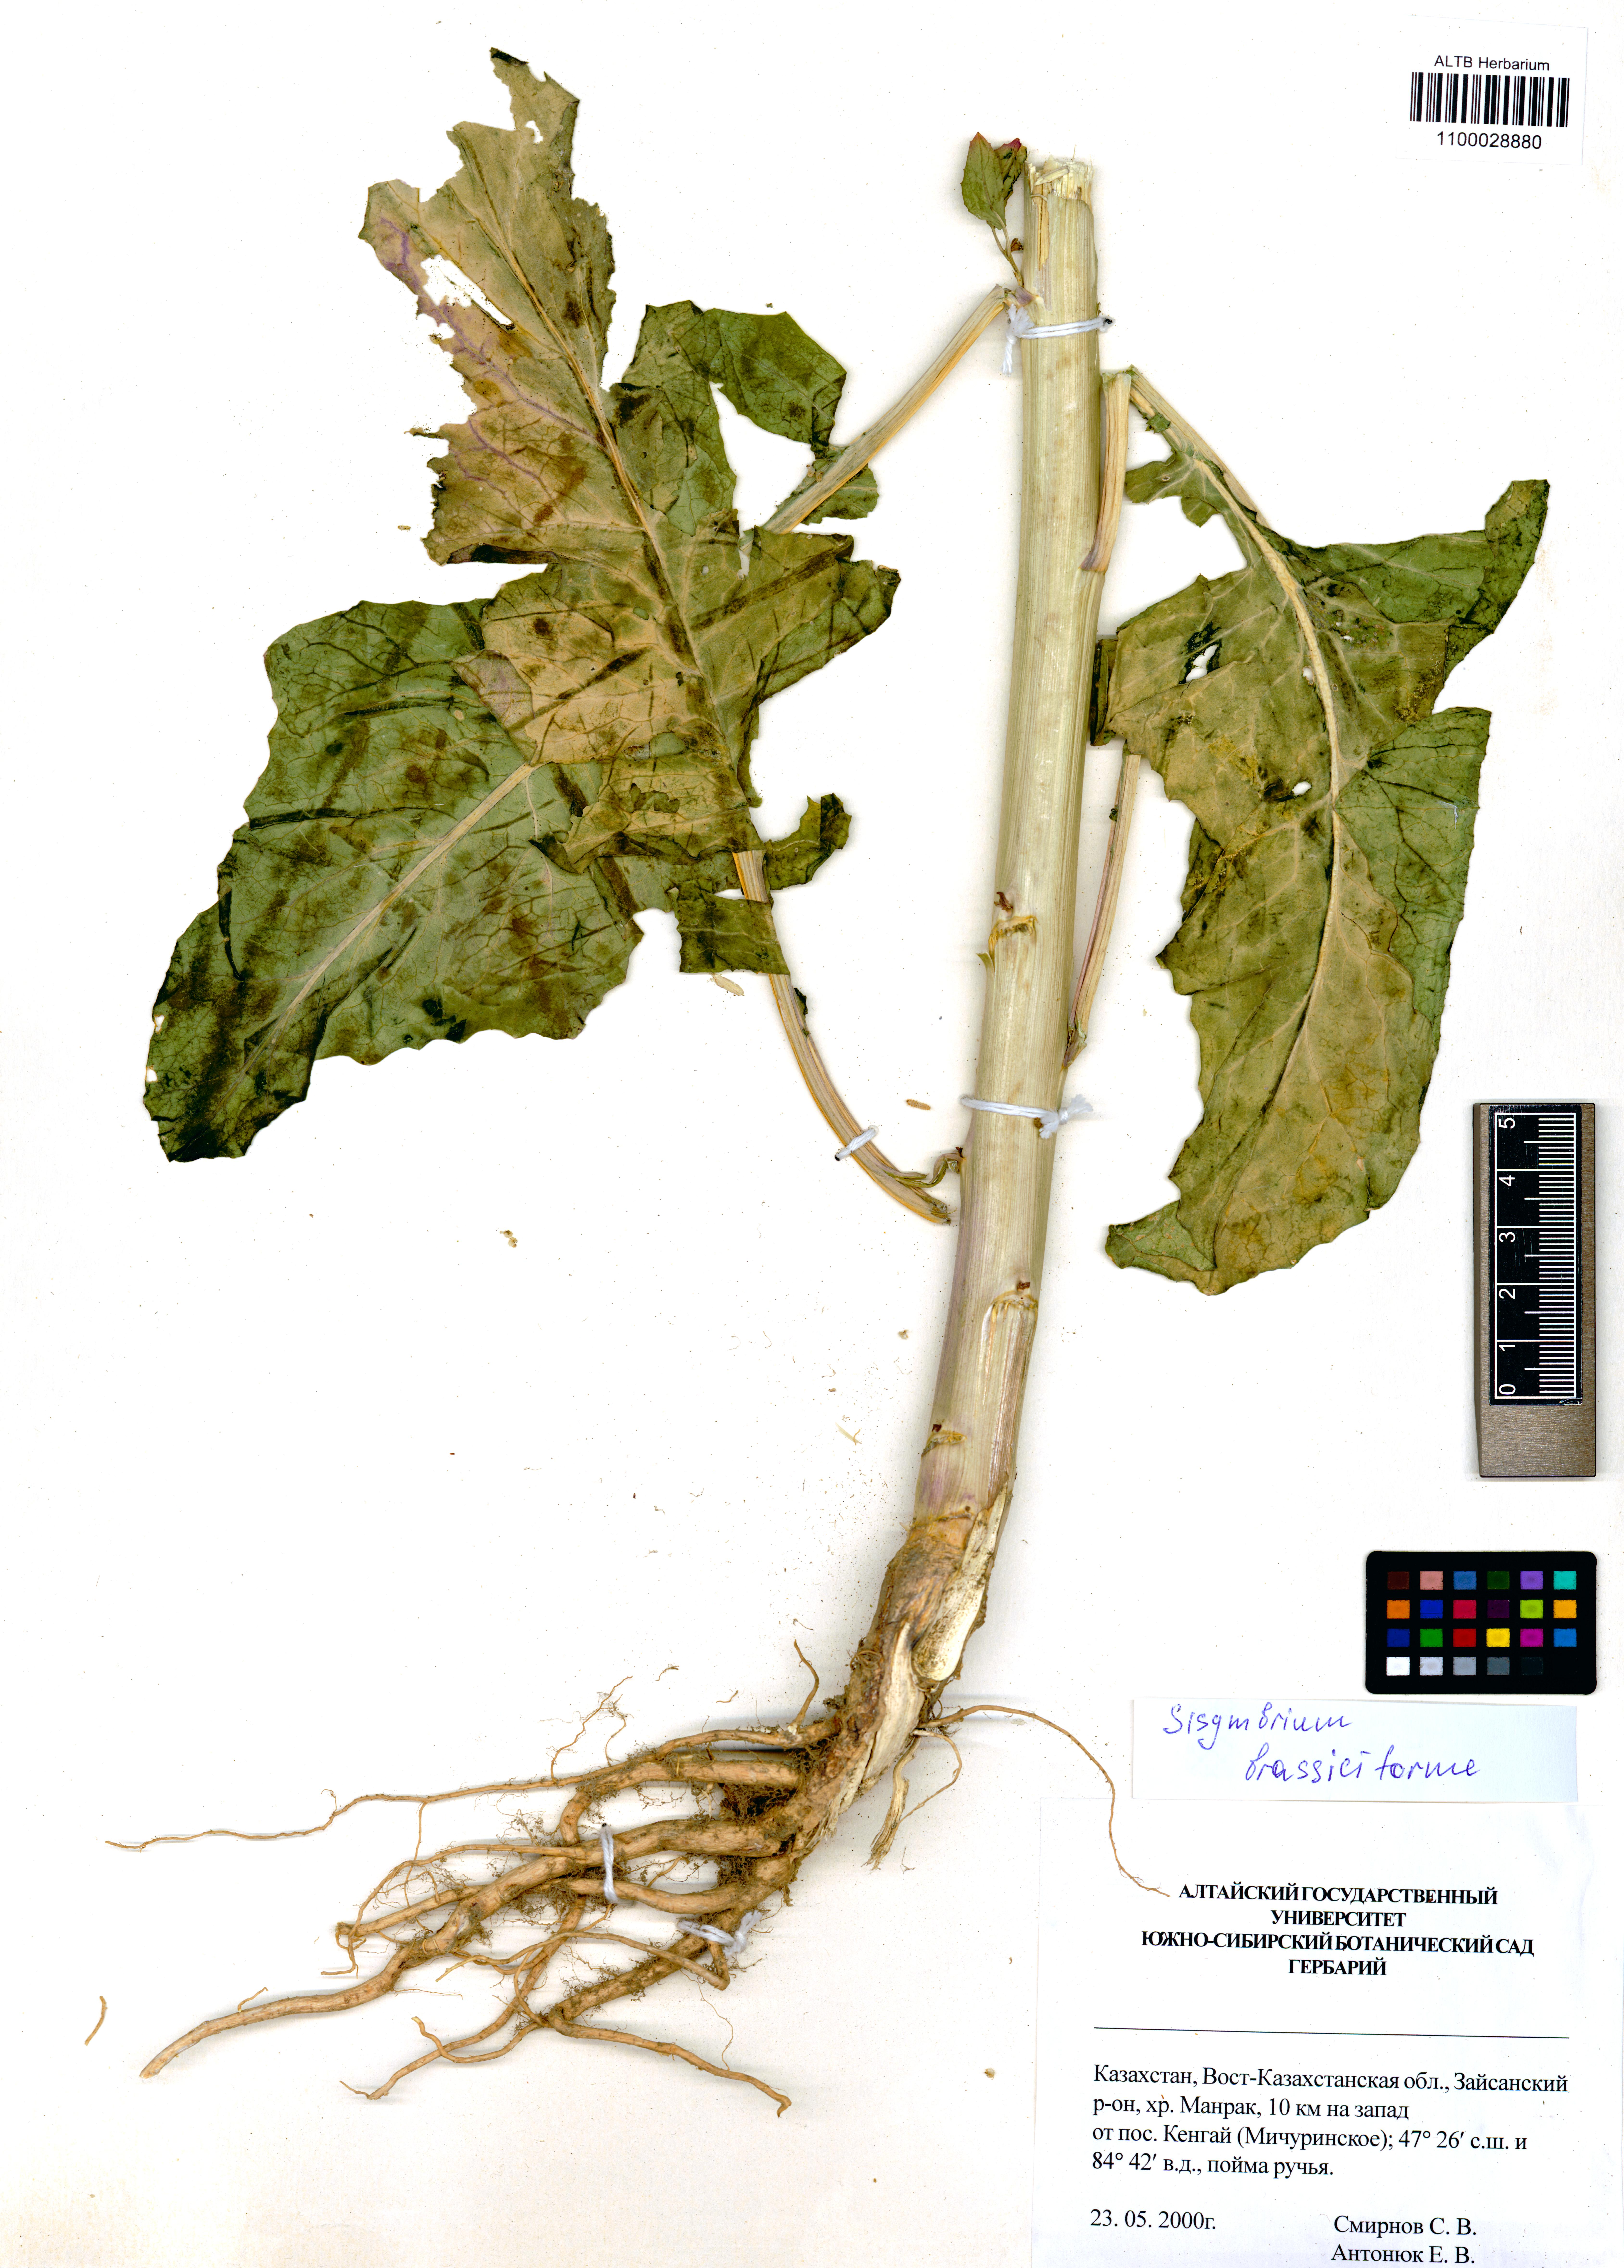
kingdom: Plantae
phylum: Tracheophyta
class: Magnoliopsida
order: Brassicales
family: Brassicaceae
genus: Sisymbrium
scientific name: Sisymbrium brassiciforme
